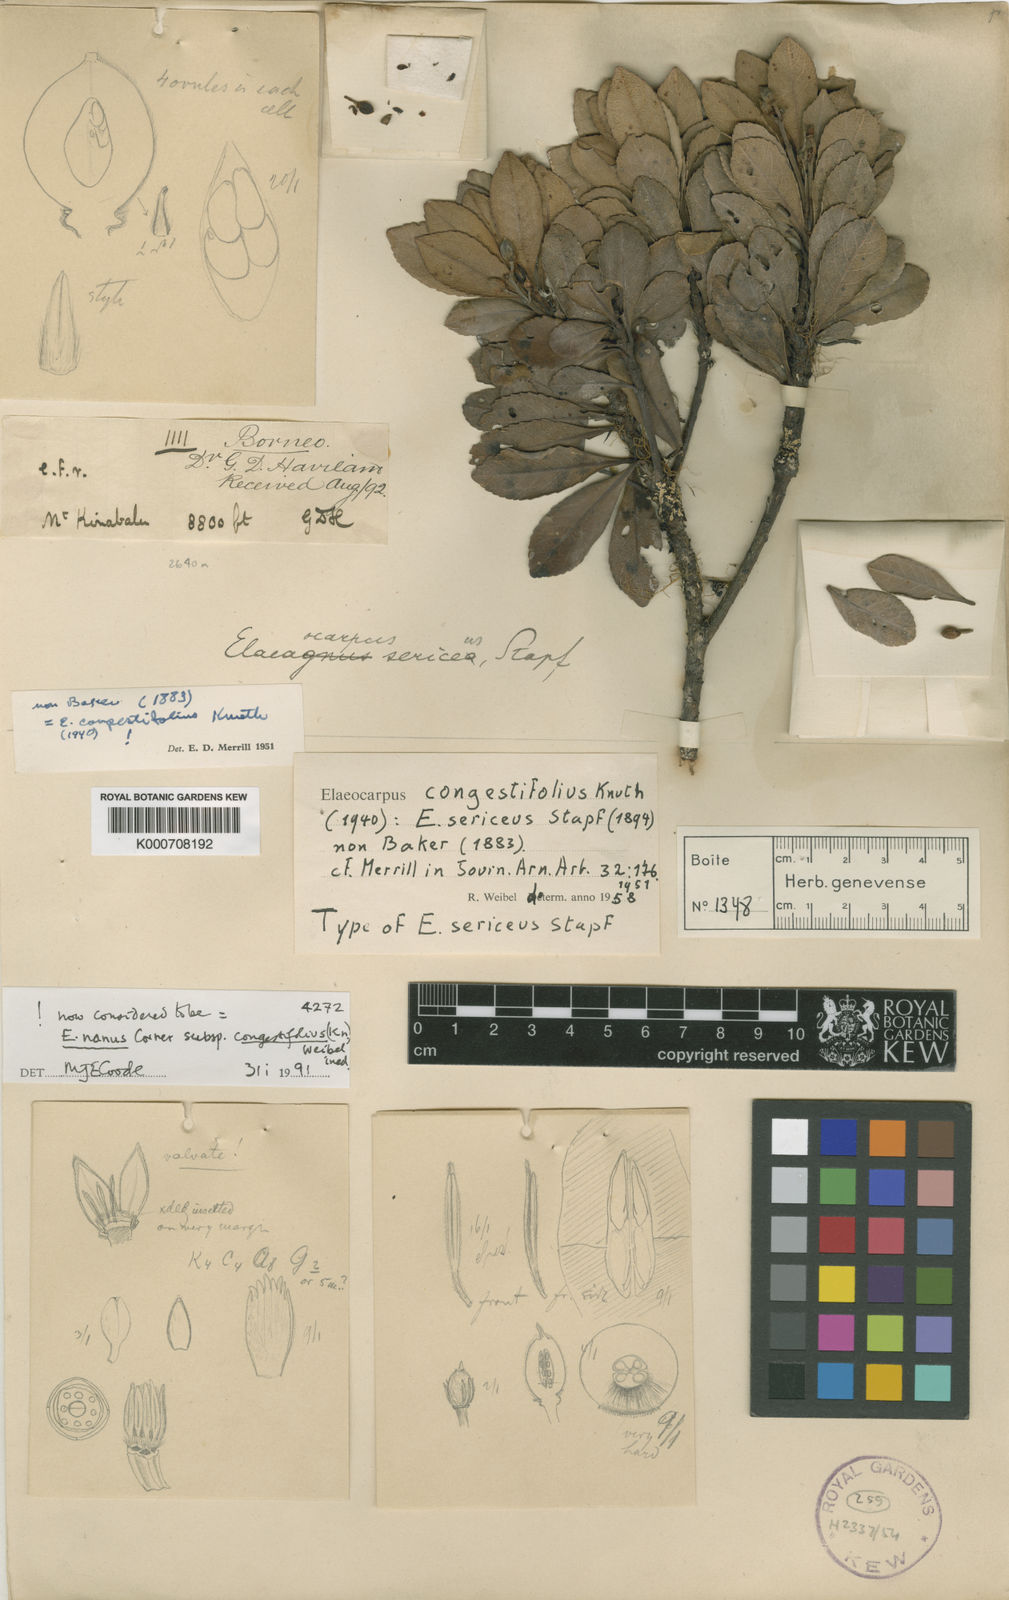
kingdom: Plantae
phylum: Tracheophyta
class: Magnoliopsida
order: Oxalidales
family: Elaeocarpaceae
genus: Elaeocarpus
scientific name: Elaeocarpus nanus
